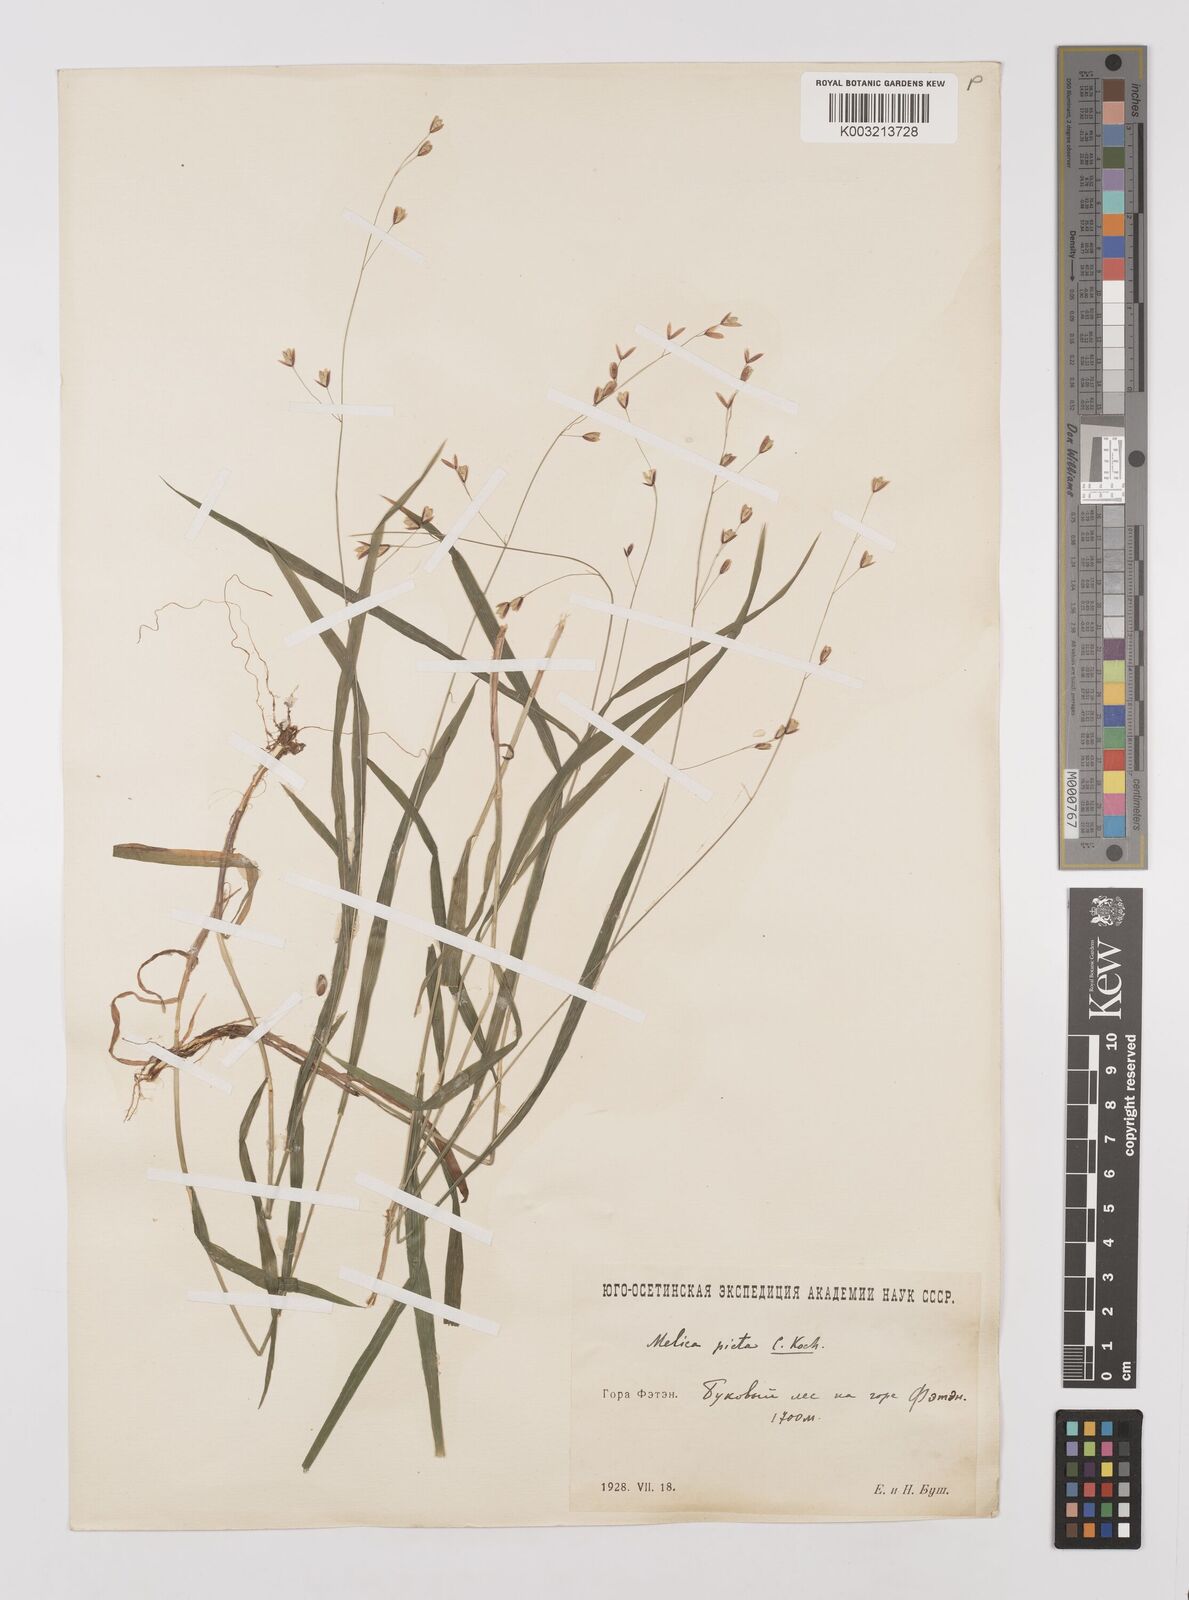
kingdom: Plantae
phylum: Tracheophyta
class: Liliopsida
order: Poales
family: Poaceae
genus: Melica
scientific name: Melica uniflora
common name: Wood melick
